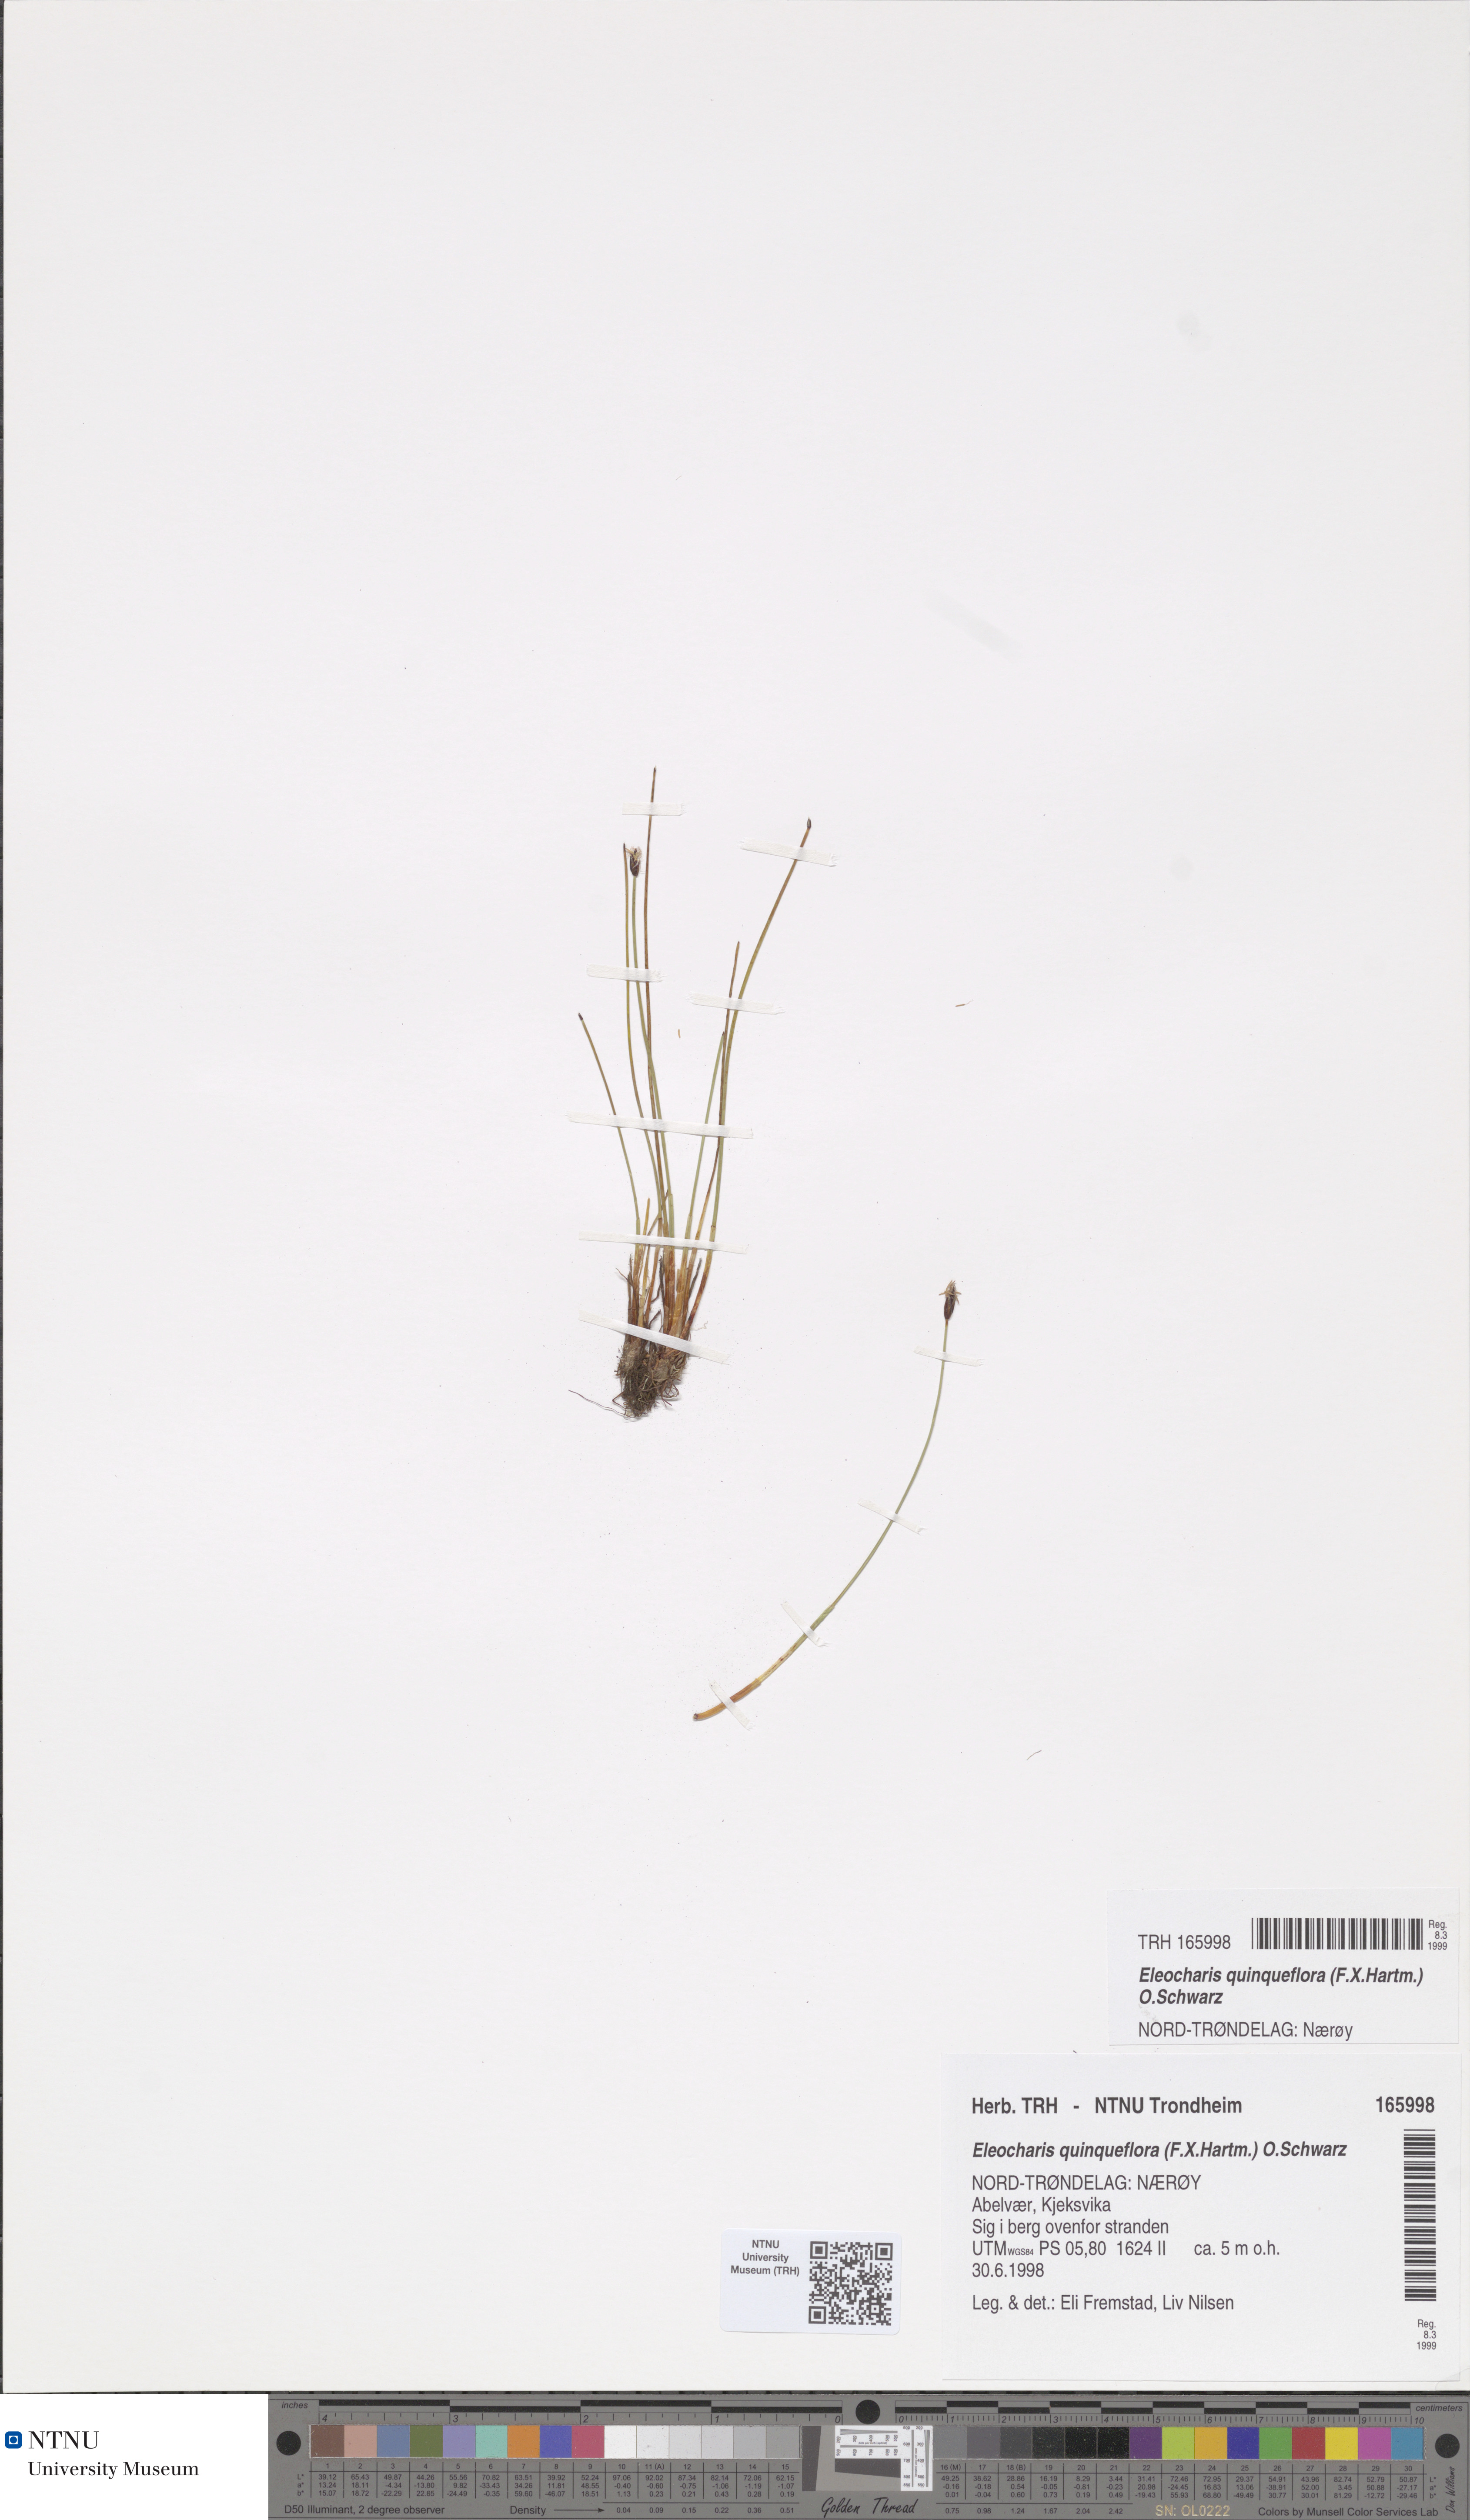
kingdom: Plantae
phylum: Tracheophyta
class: Liliopsida
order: Poales
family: Cyperaceae
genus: Eleocharis
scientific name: Eleocharis quinqueflora
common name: Few-flowered spike-rush
